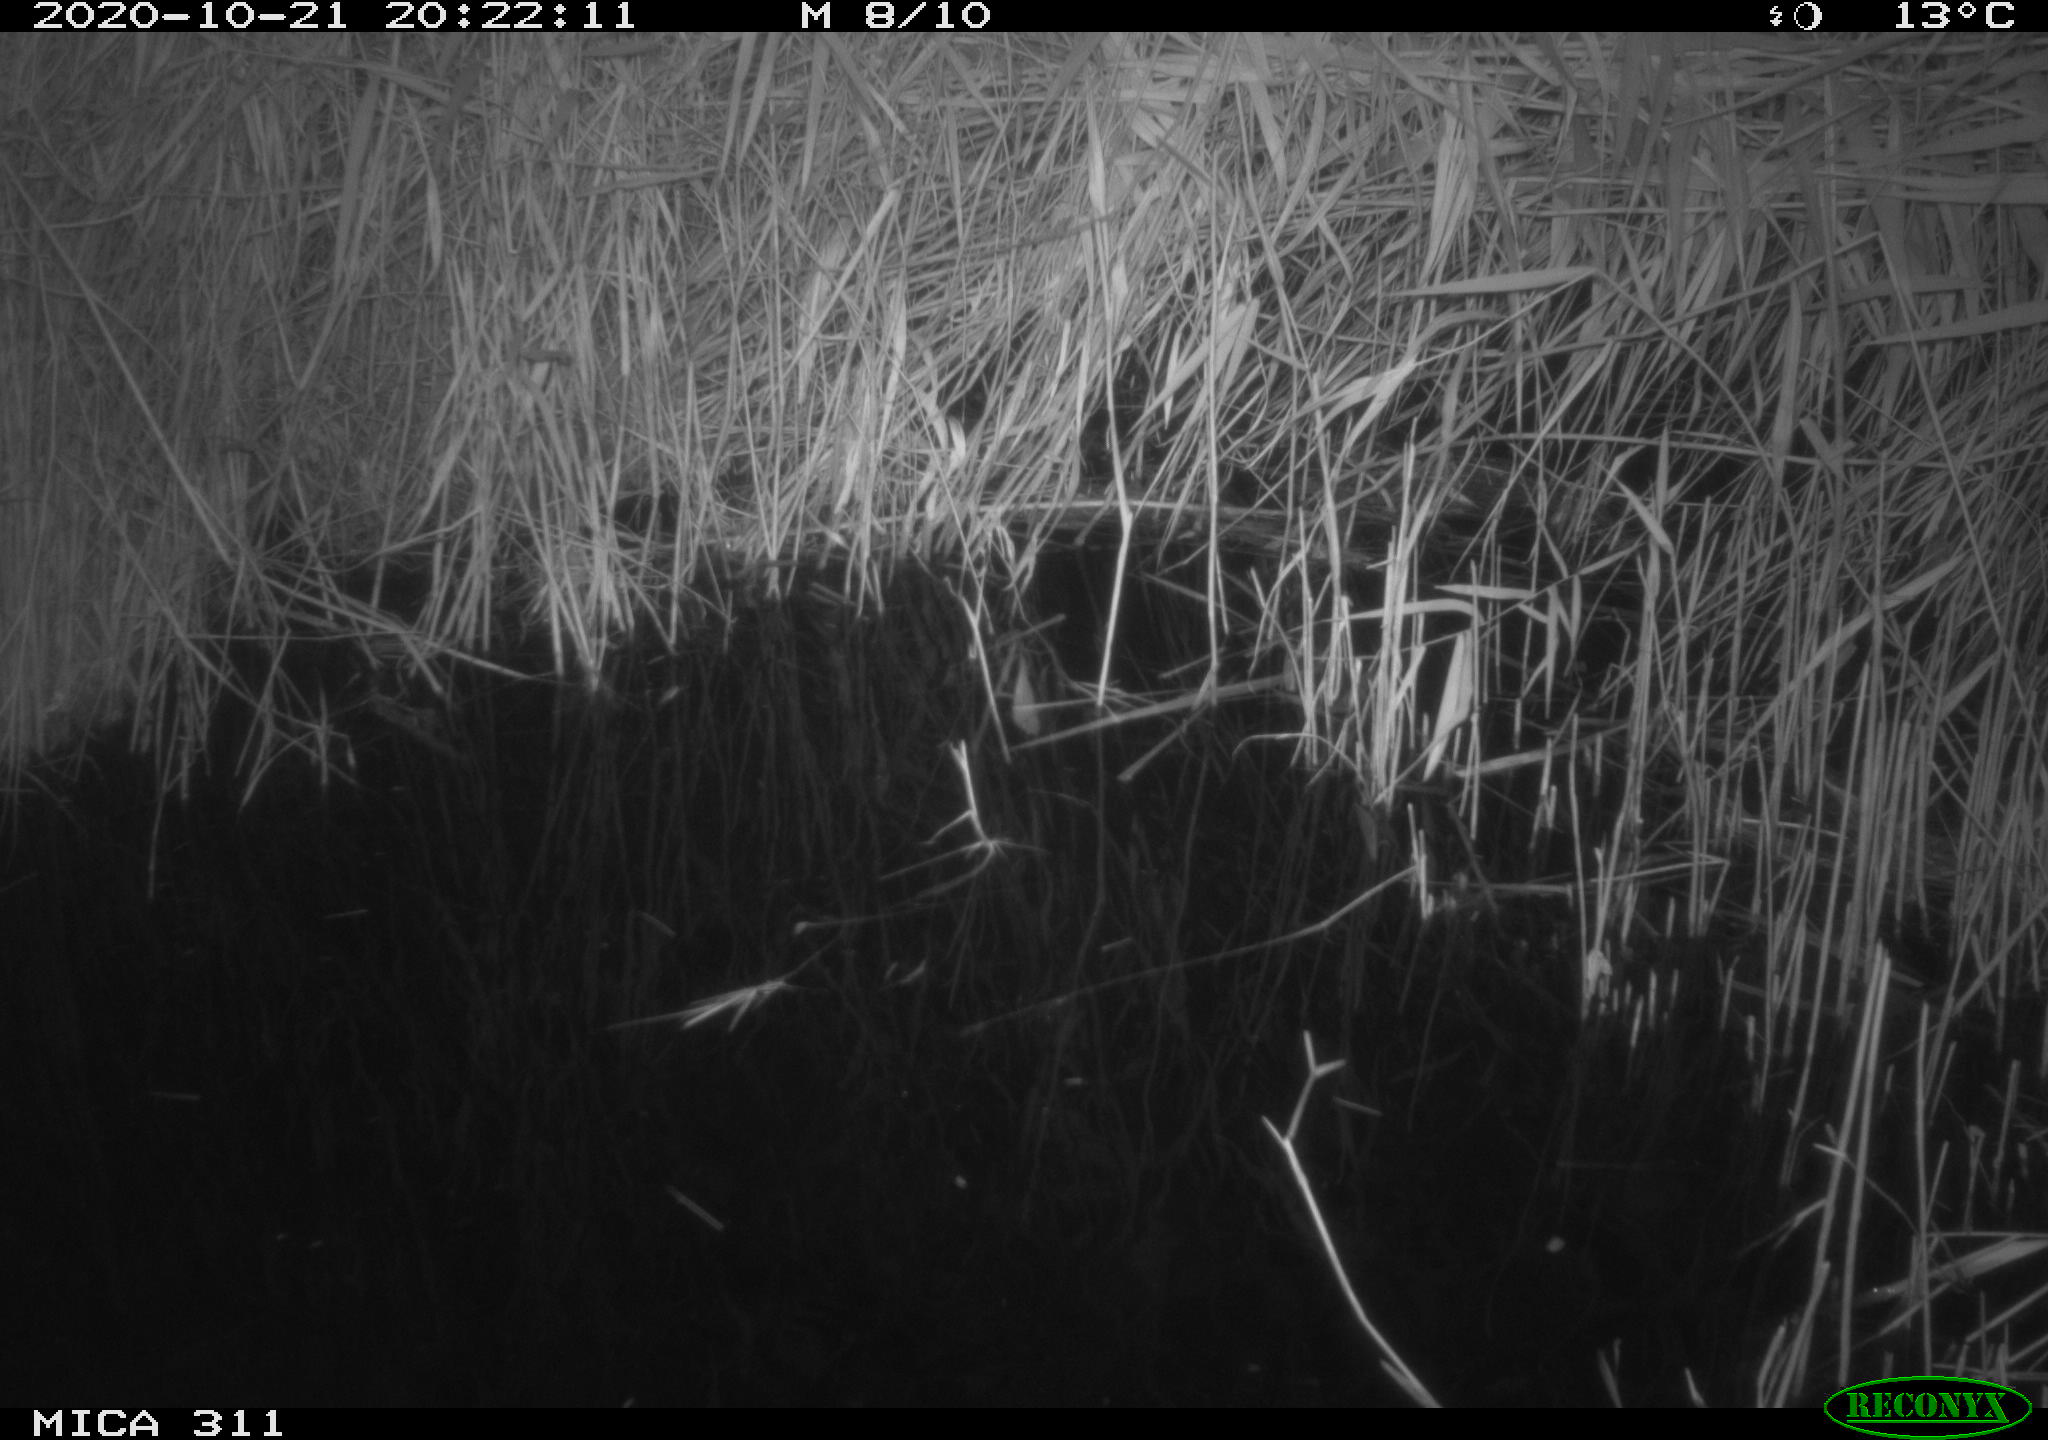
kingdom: Animalia
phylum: Chordata
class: Mammalia
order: Rodentia
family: Muridae
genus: Rattus
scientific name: Rattus norvegicus
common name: Brown rat
